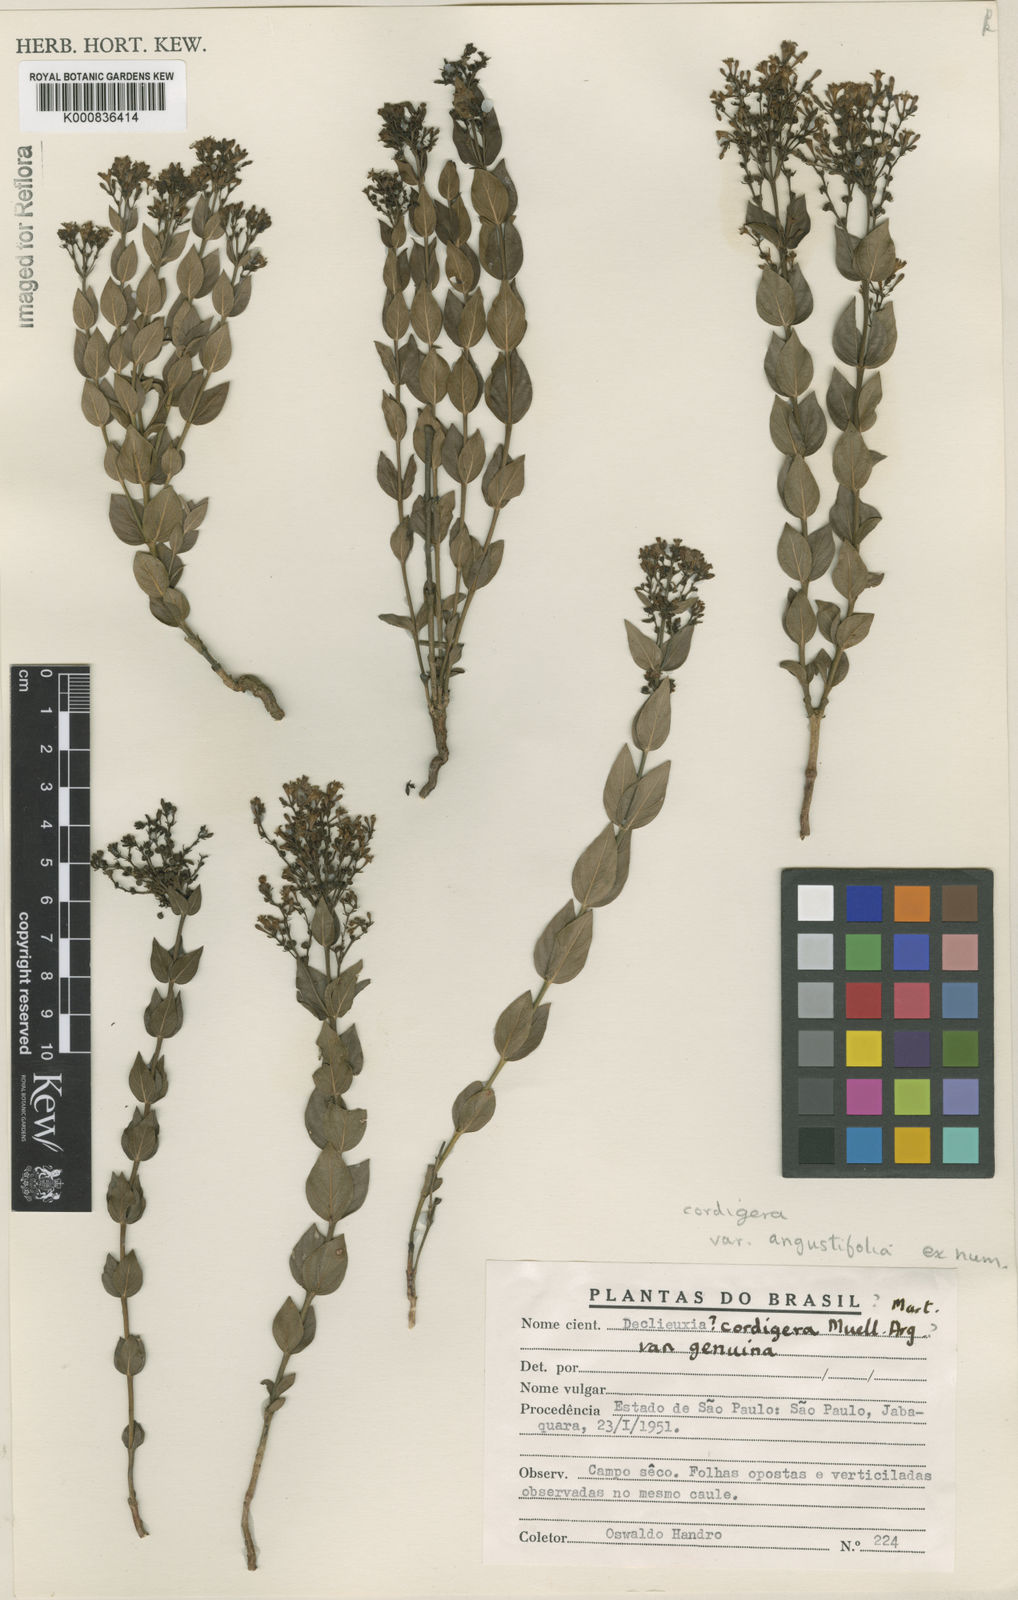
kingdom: Plantae
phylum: Tracheophyta
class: Magnoliopsida
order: Gentianales
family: Rubiaceae
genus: Declieuxia
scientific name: Declieuxia
